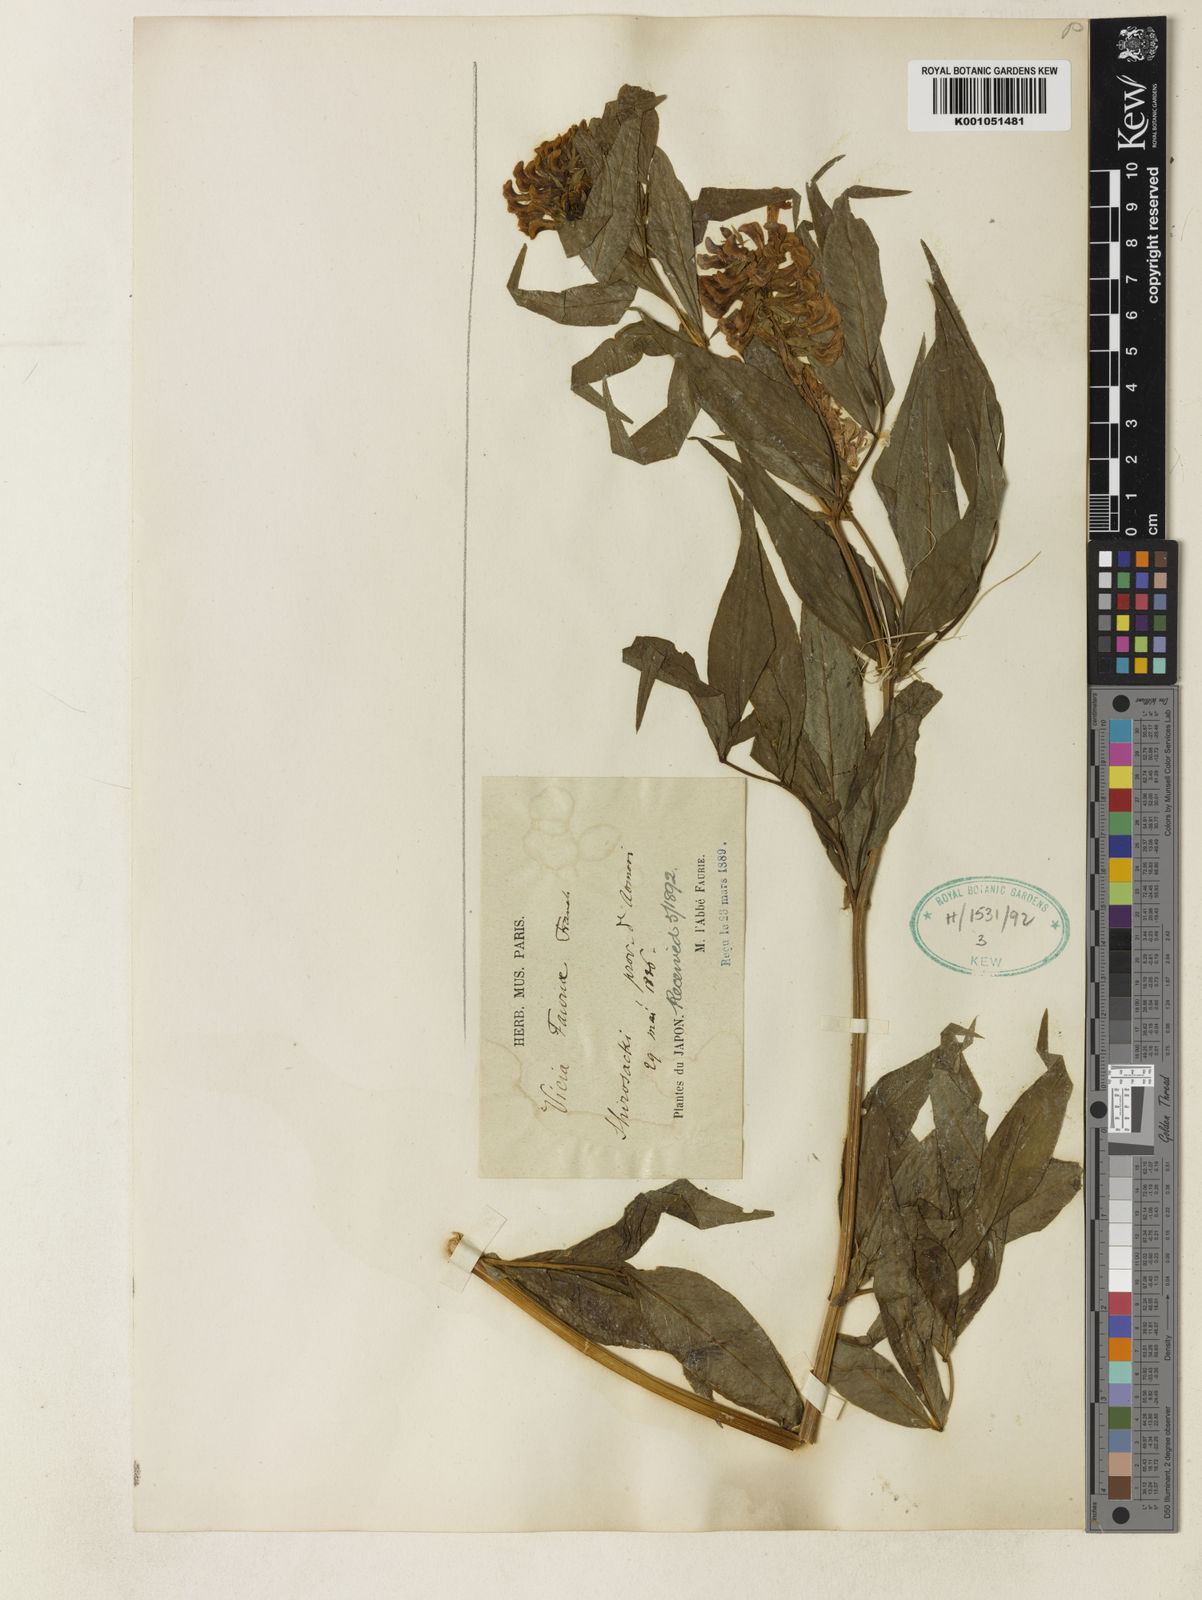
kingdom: Plantae
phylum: Tracheophyta
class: Magnoliopsida
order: Fabales
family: Fabaceae
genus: Vicia
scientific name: Vicia fauriei
